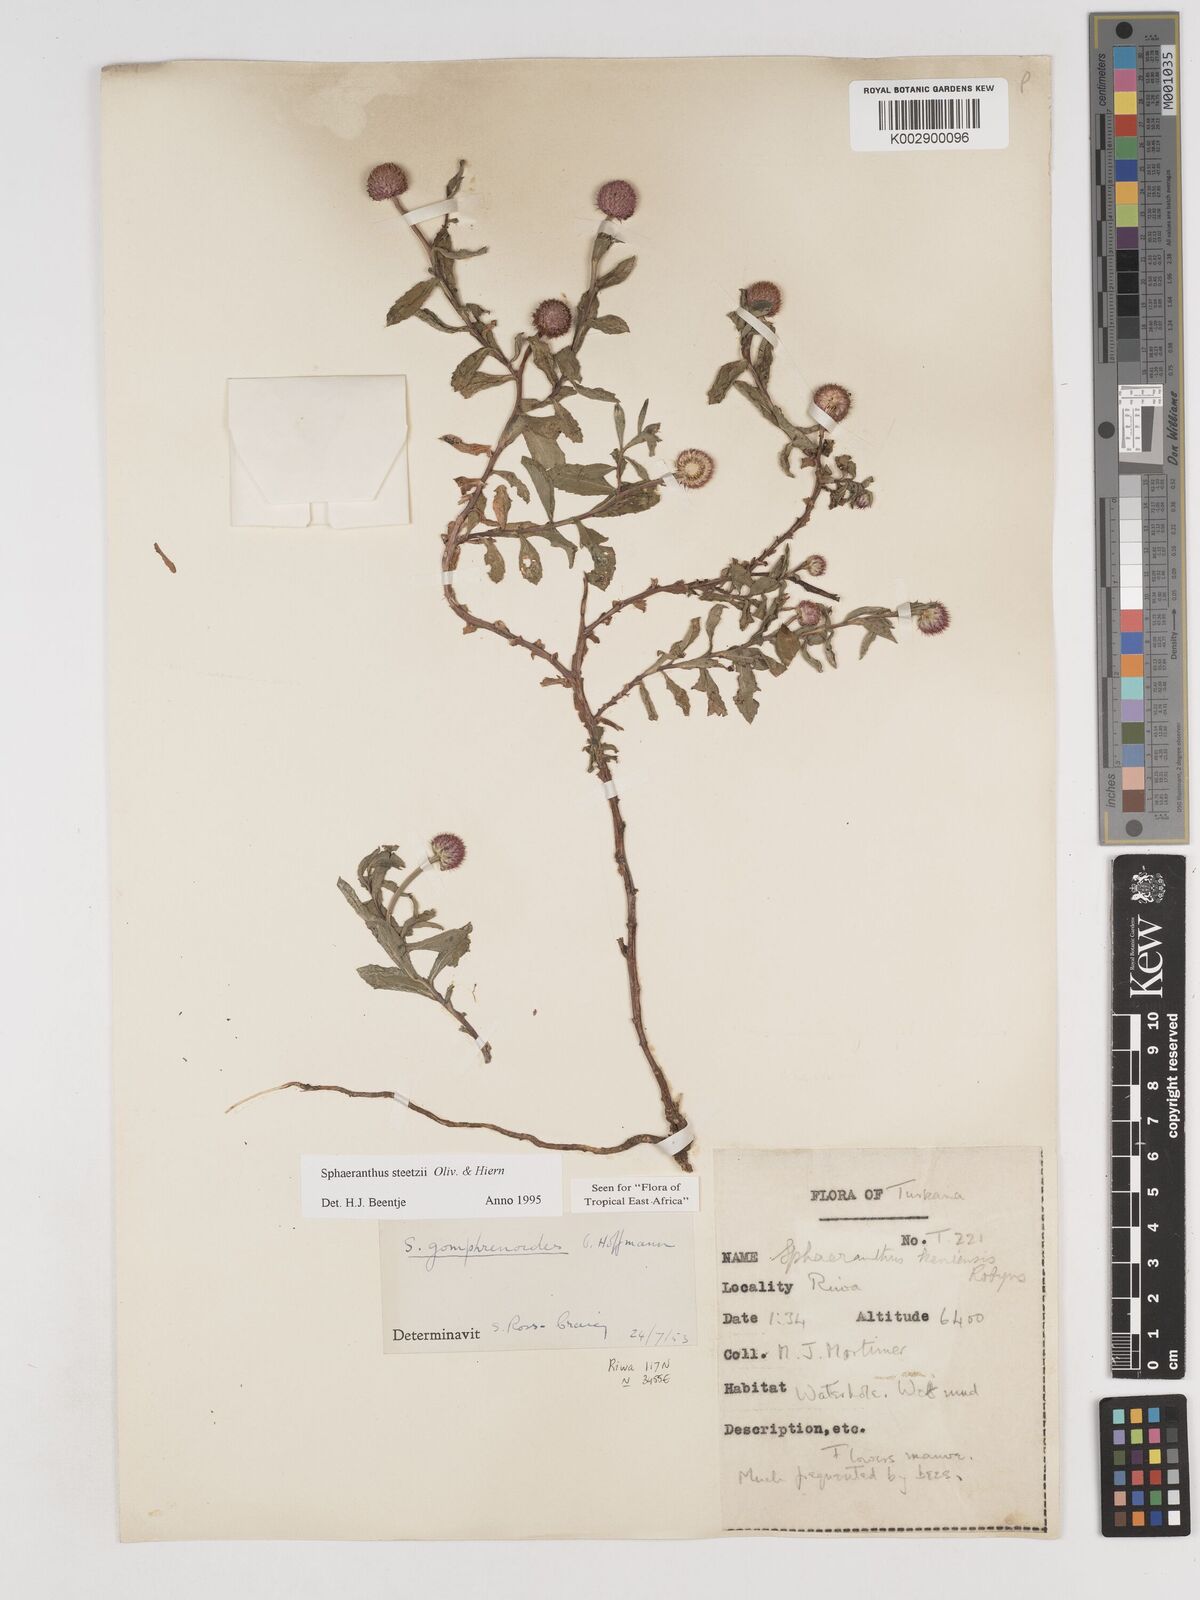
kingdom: Plantae
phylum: Tracheophyta
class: Magnoliopsida
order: Asterales
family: Asteraceae
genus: Sphaeranthus
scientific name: Sphaeranthus steetzii
